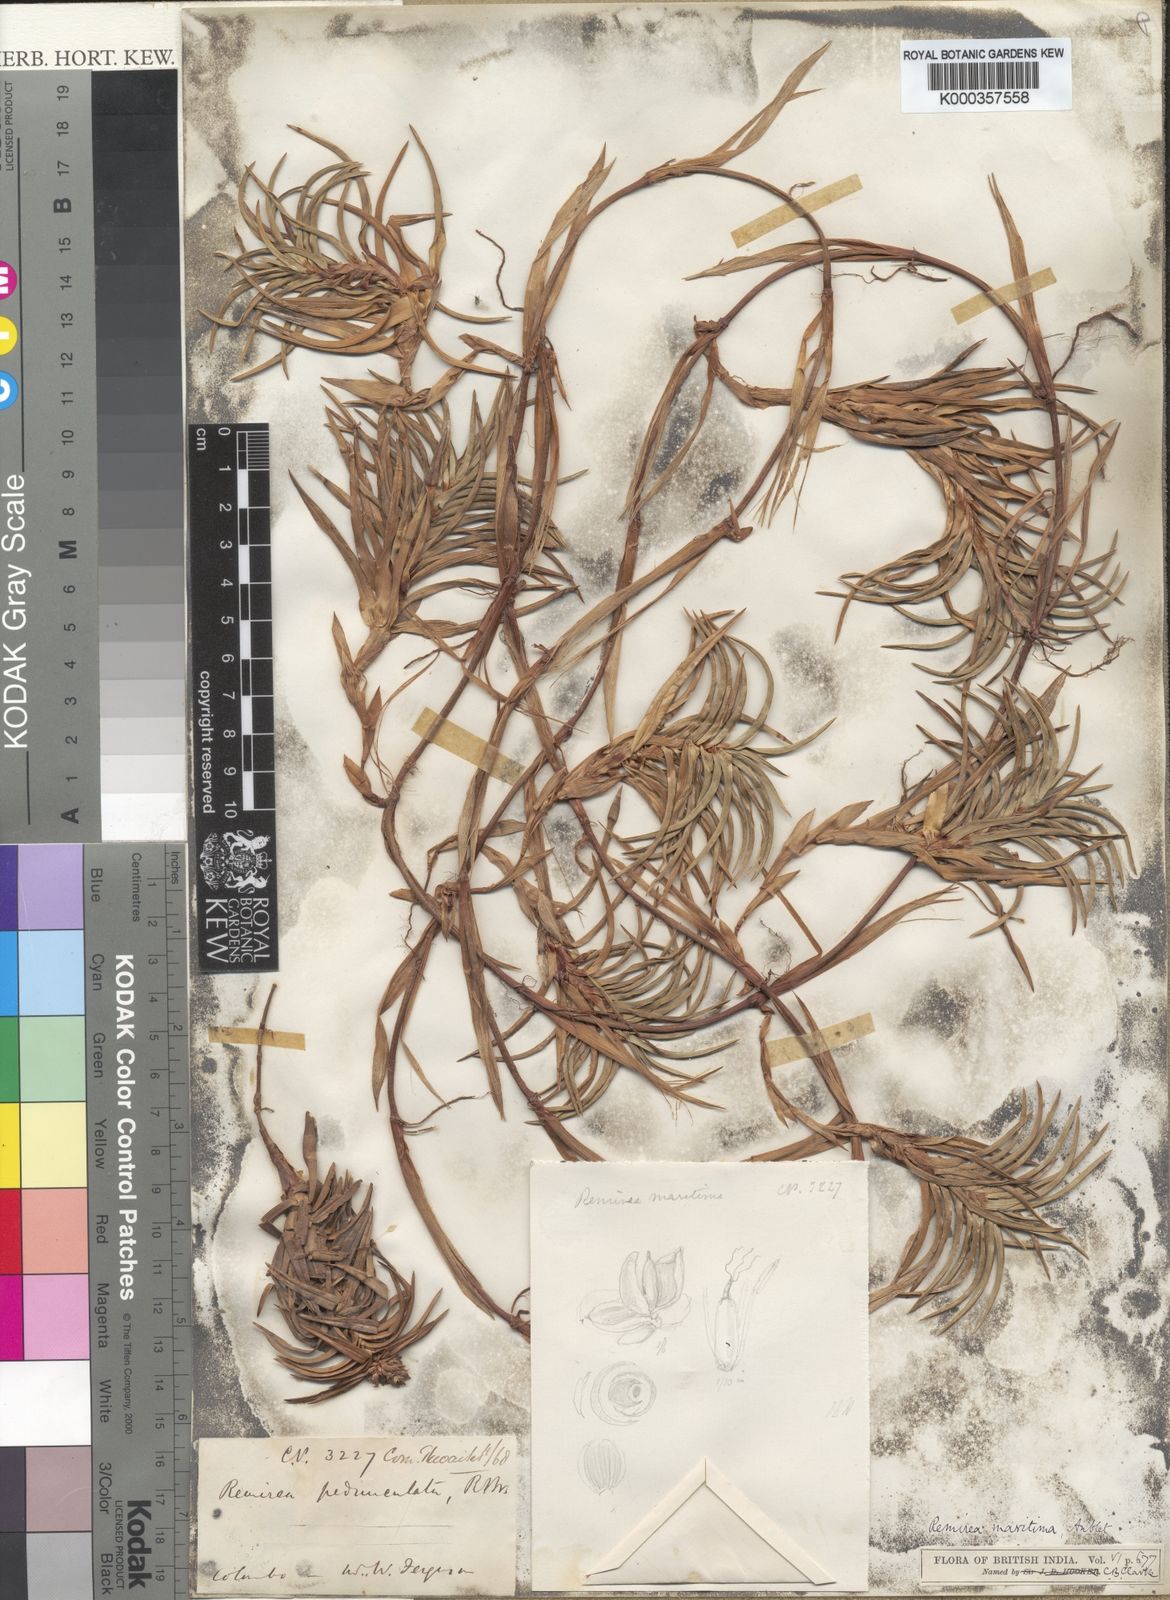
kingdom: Plantae
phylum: Tracheophyta
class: Liliopsida
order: Poales
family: Cyperaceae
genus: Cyperus
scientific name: Cyperus pedunculatus
